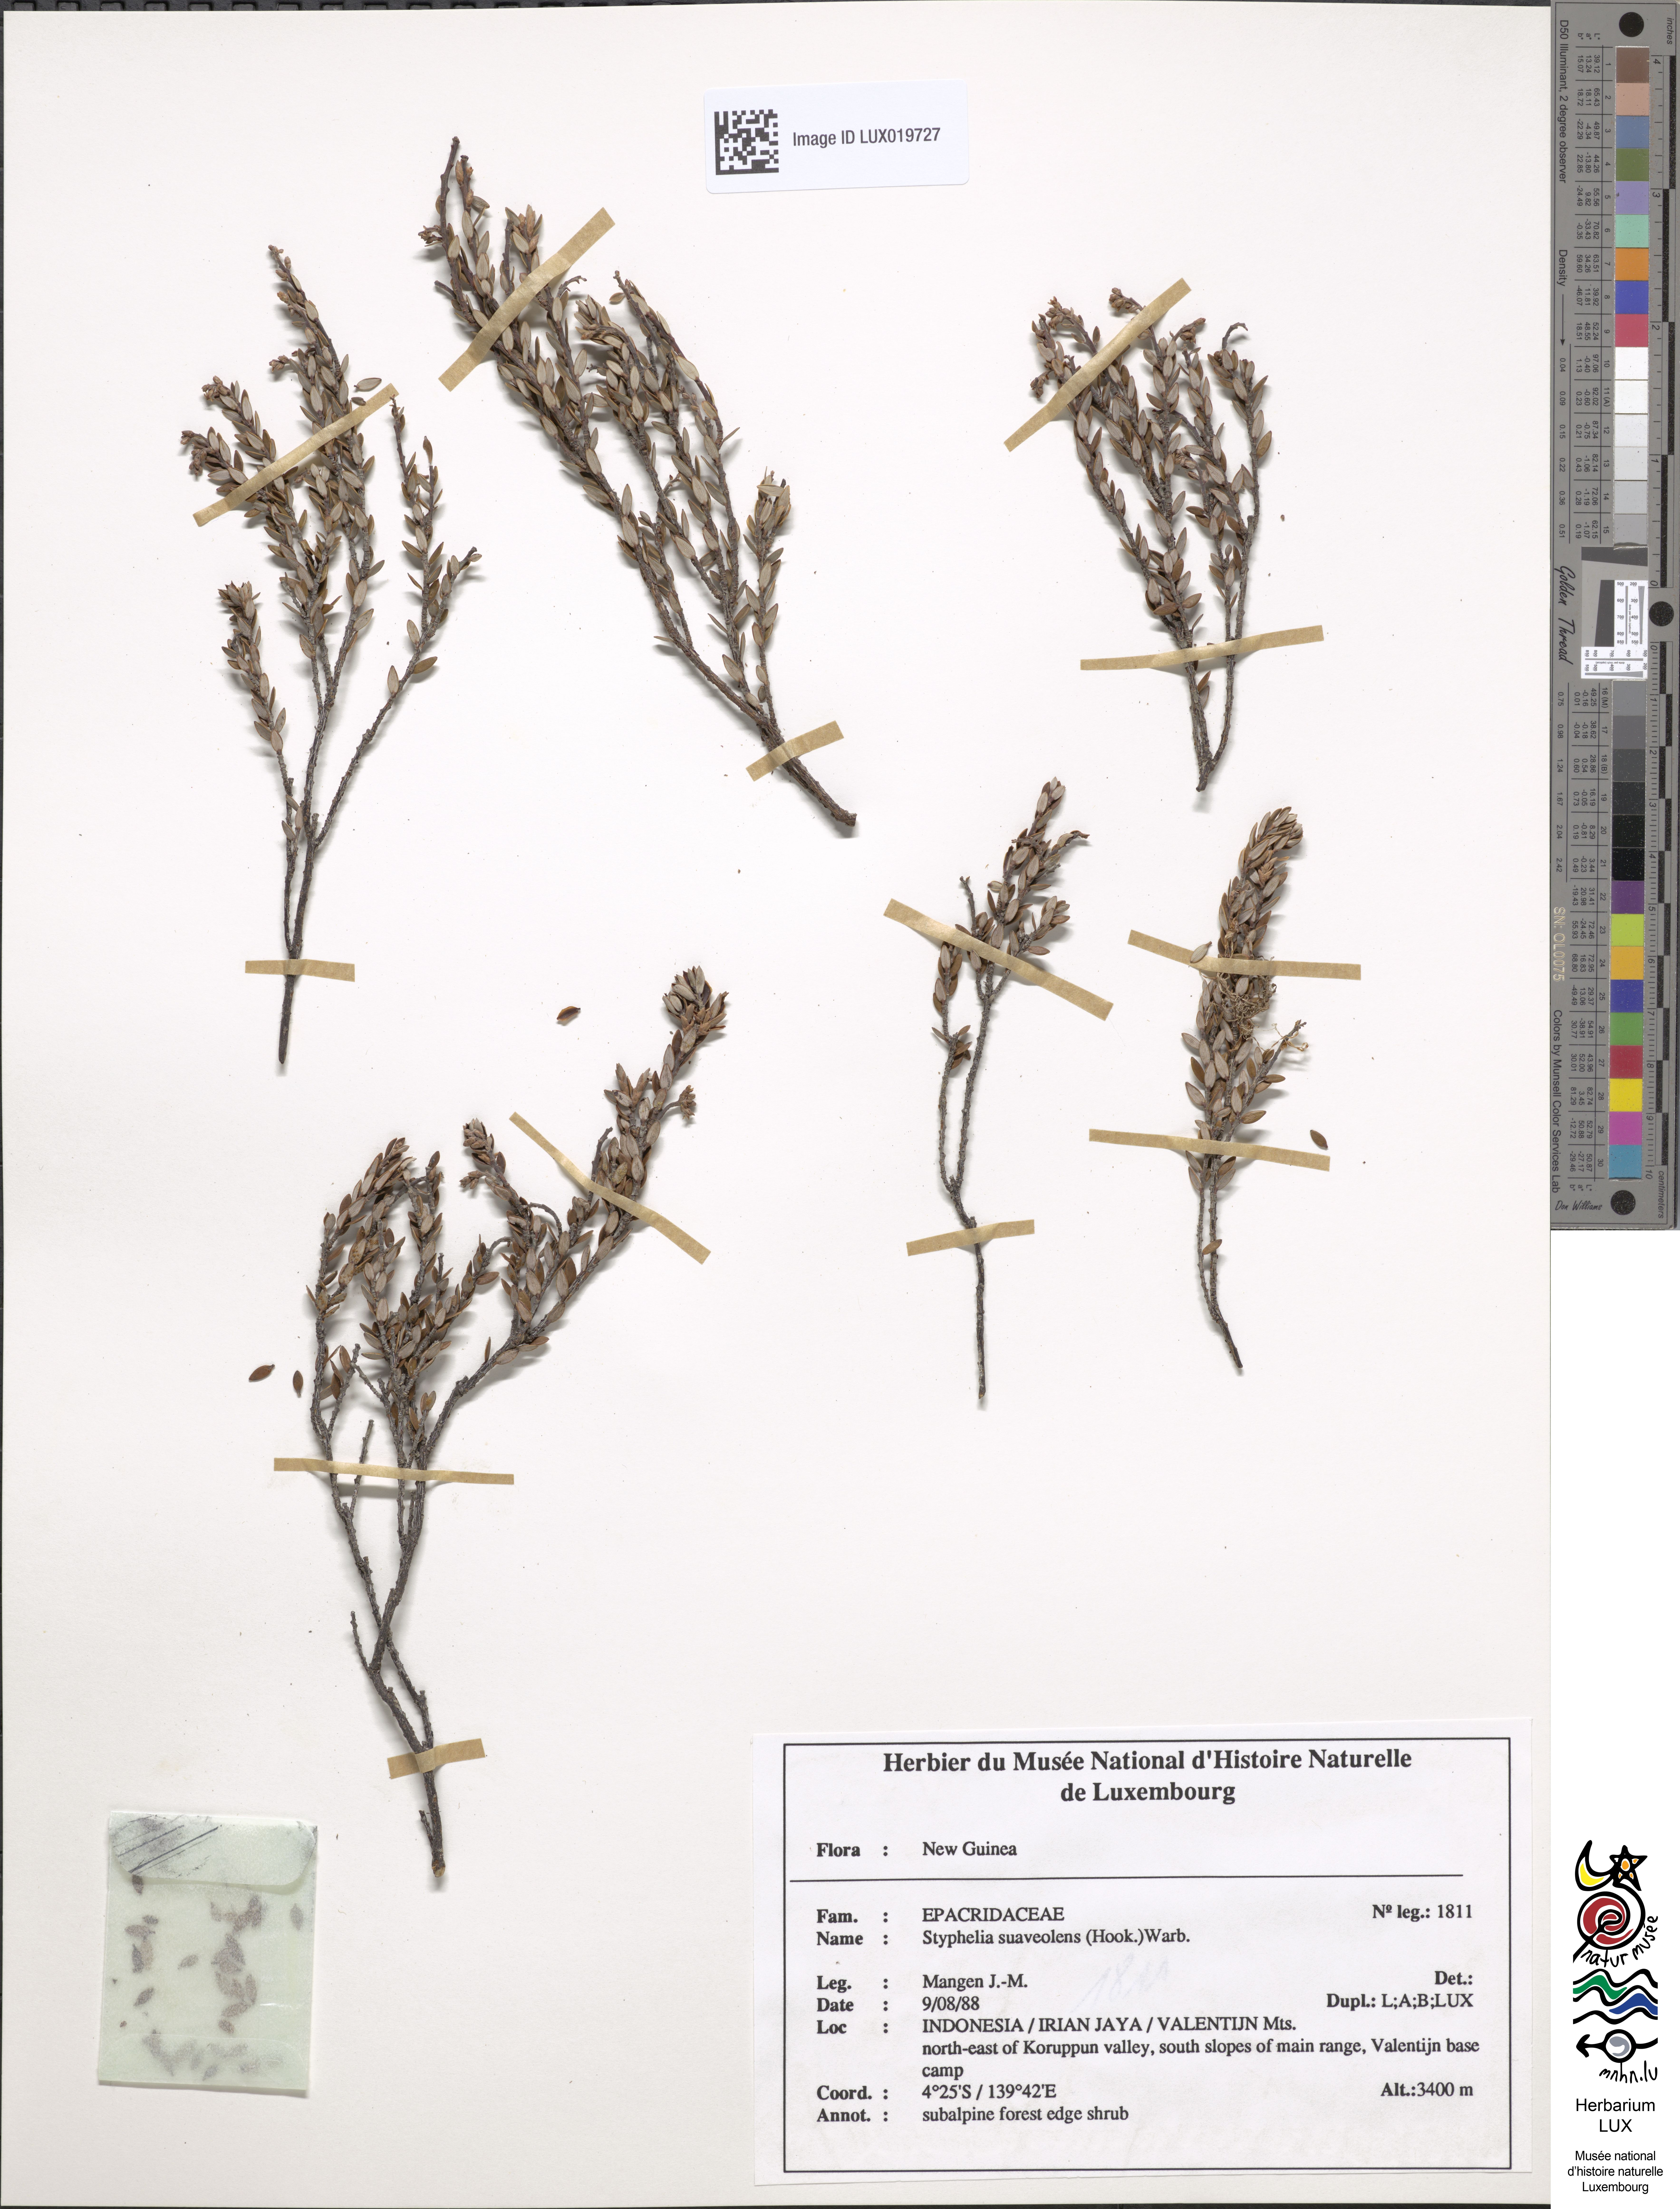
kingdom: Plantae
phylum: Tracheophyta
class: Magnoliopsida
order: Ericales
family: Ericaceae
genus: Acrothamnus
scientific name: Acrothamnus suaveolens
